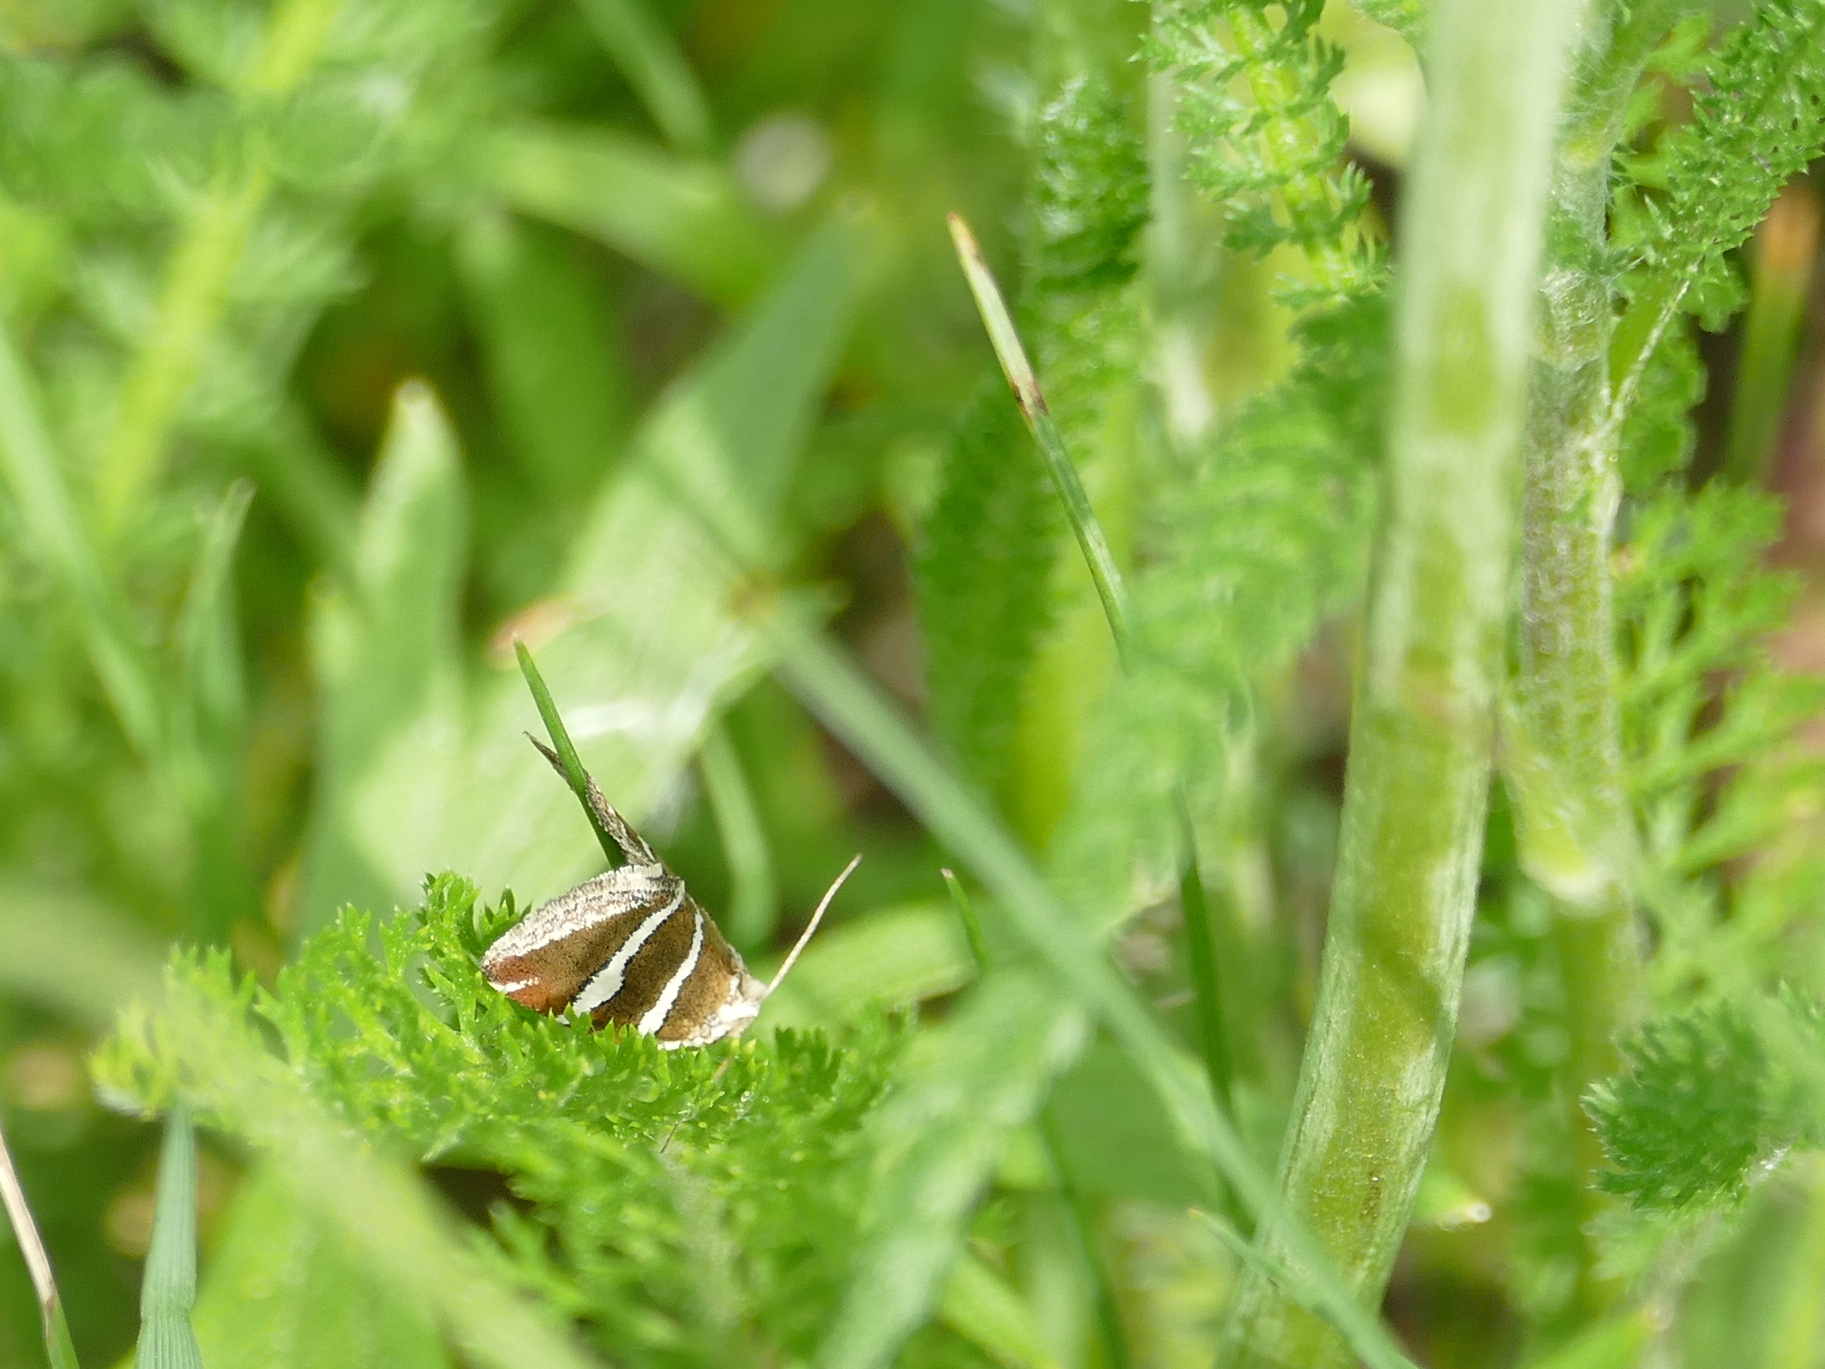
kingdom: Animalia
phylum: Arthropoda
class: Insecta
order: Lepidoptera
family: Noctuidae
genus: Deltote
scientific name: Deltote bankiana
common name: Silver barred
